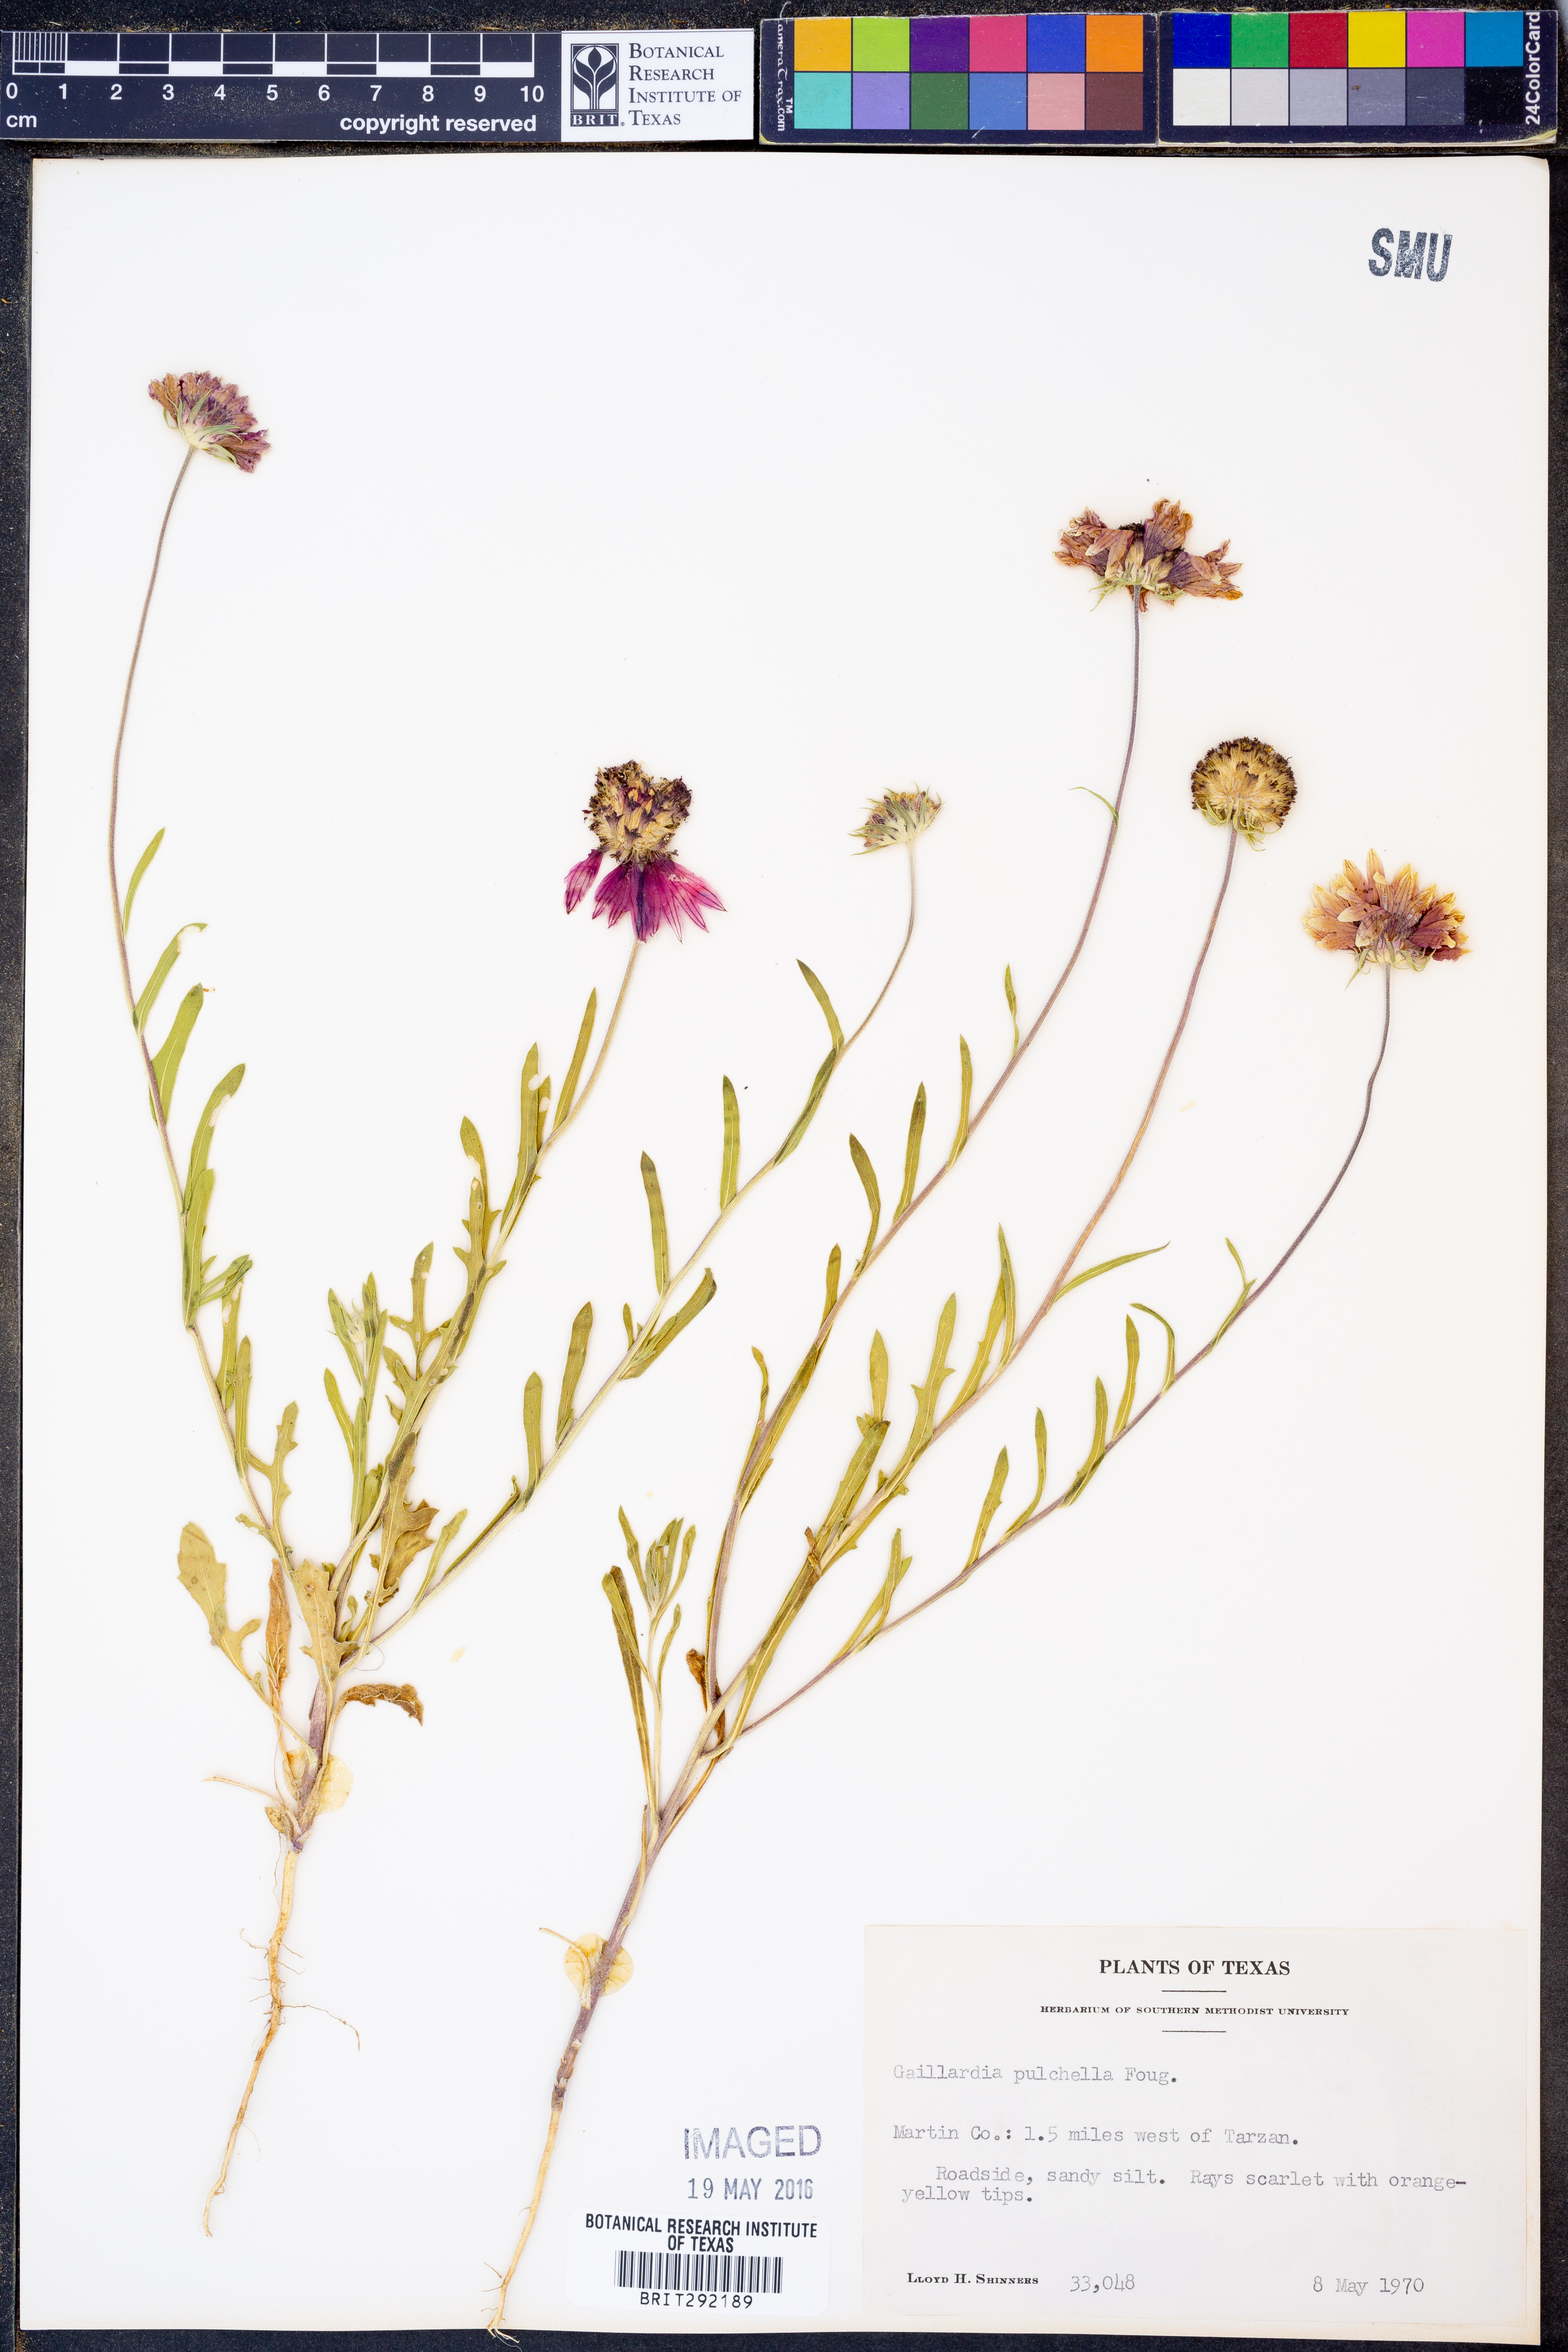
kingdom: Plantae
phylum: Tracheophyta
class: Magnoliopsida
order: Asterales
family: Asteraceae
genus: Gaillardia
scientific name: Gaillardia pulchella
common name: Firewheel
